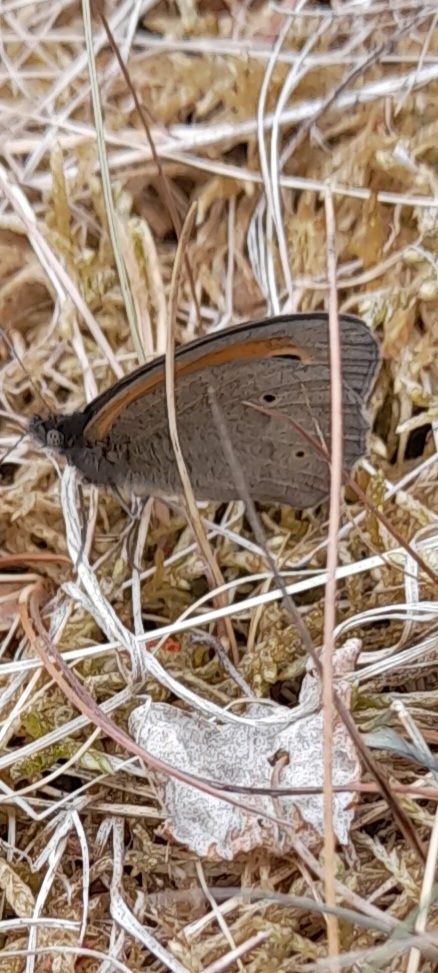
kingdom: Animalia
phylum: Arthropoda
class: Insecta
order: Lepidoptera
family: Nymphalidae
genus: Maniola
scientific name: Maniola jurtina
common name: Græsrandøje
